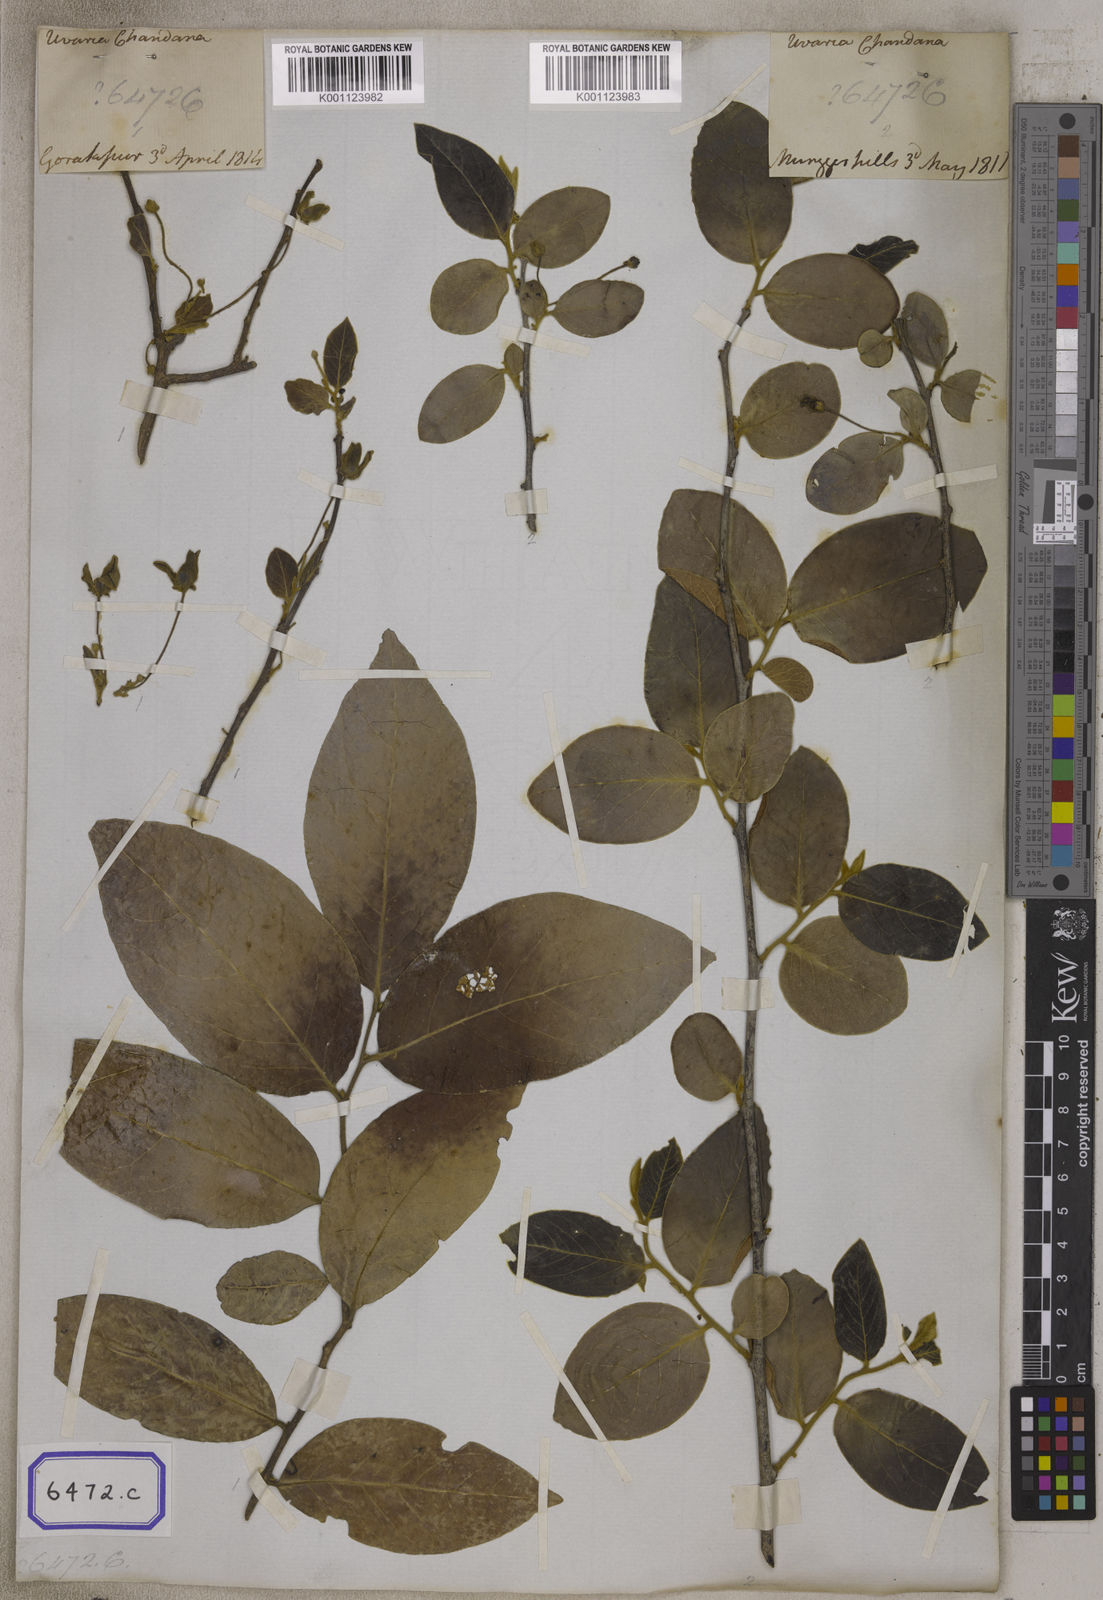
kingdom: Plantae
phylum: Tracheophyta
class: Magnoliopsida
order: Magnoliales
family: Annonaceae
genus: Fissistigma
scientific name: Fissistigma lanuginosa
